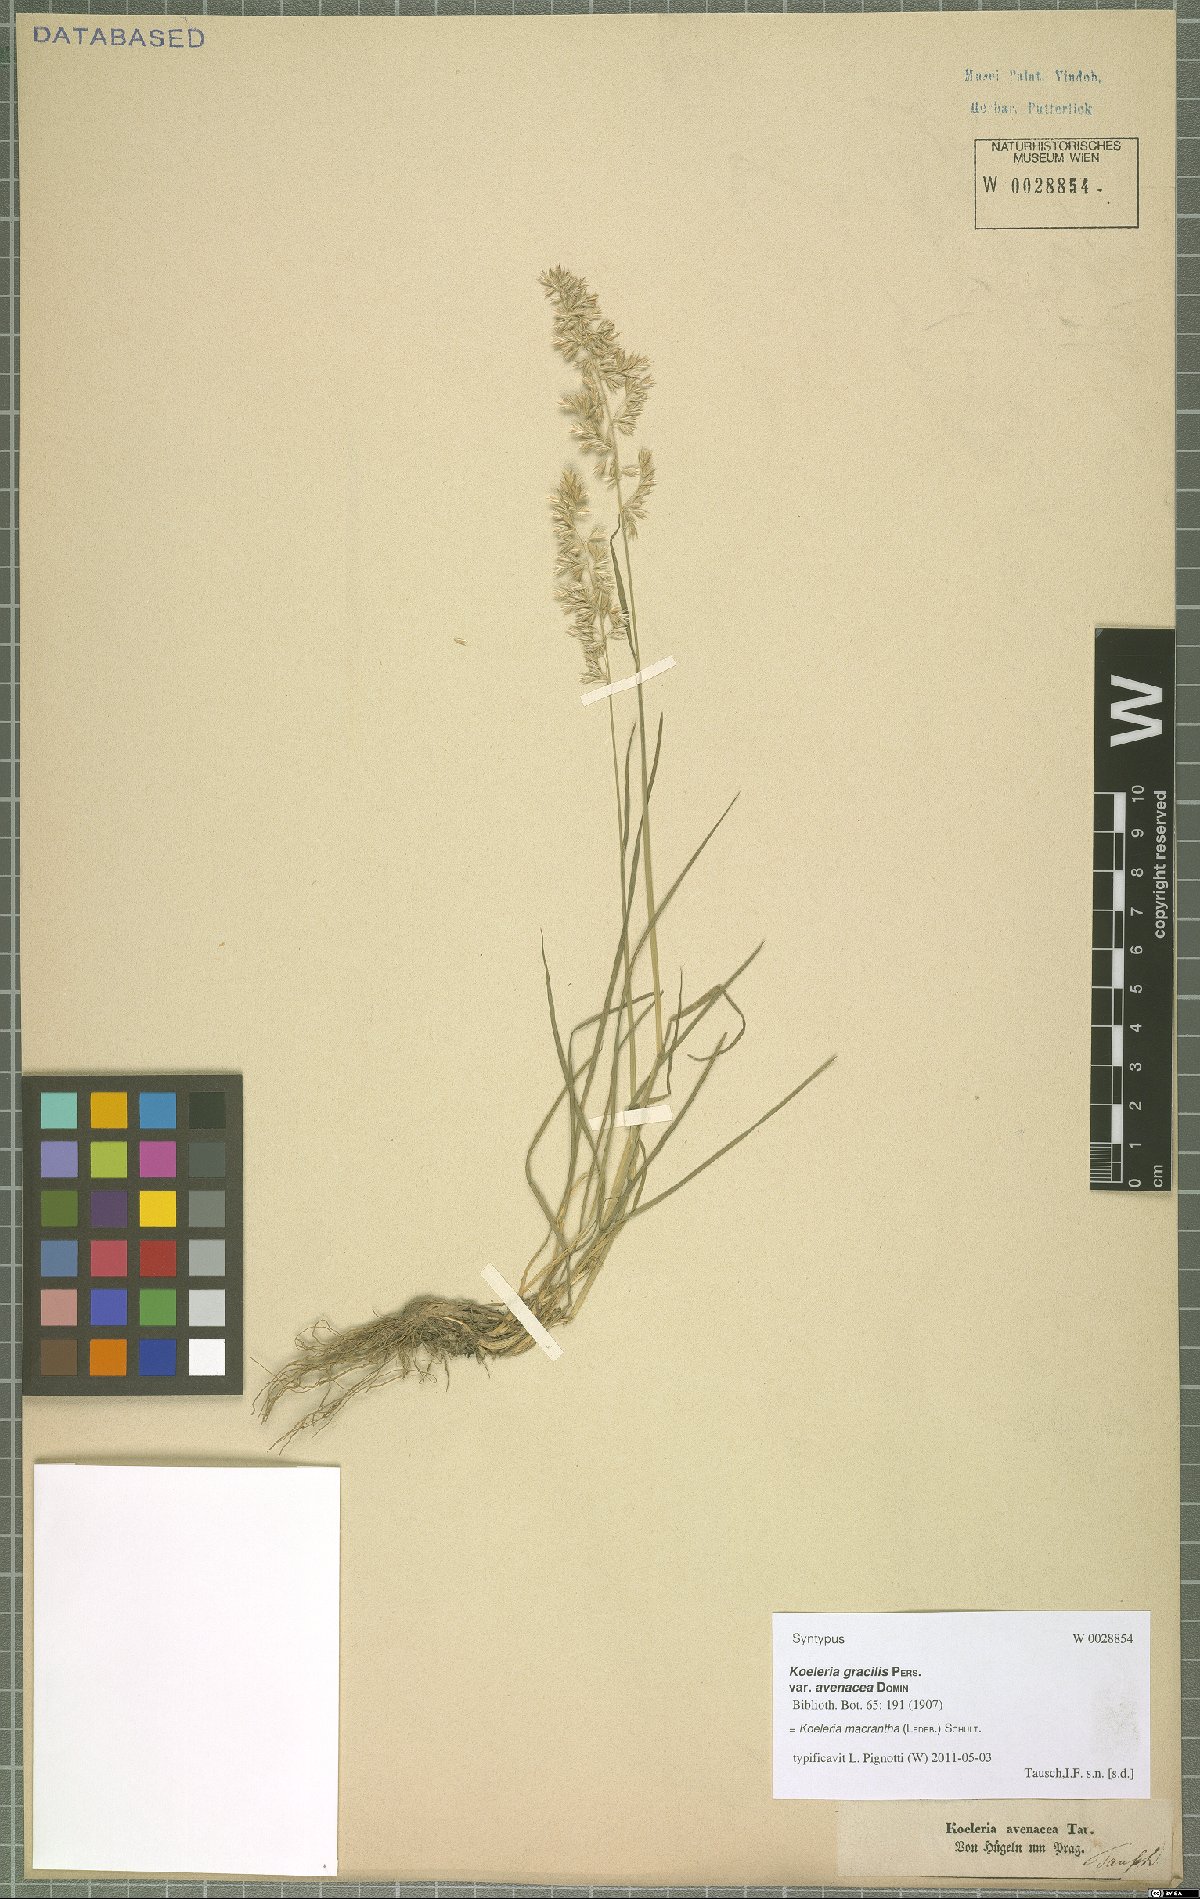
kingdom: Plantae
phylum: Tracheophyta
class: Liliopsida
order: Poales
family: Poaceae
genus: Koeleria
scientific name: Koeleria macrantha
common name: Crested hair-grass
